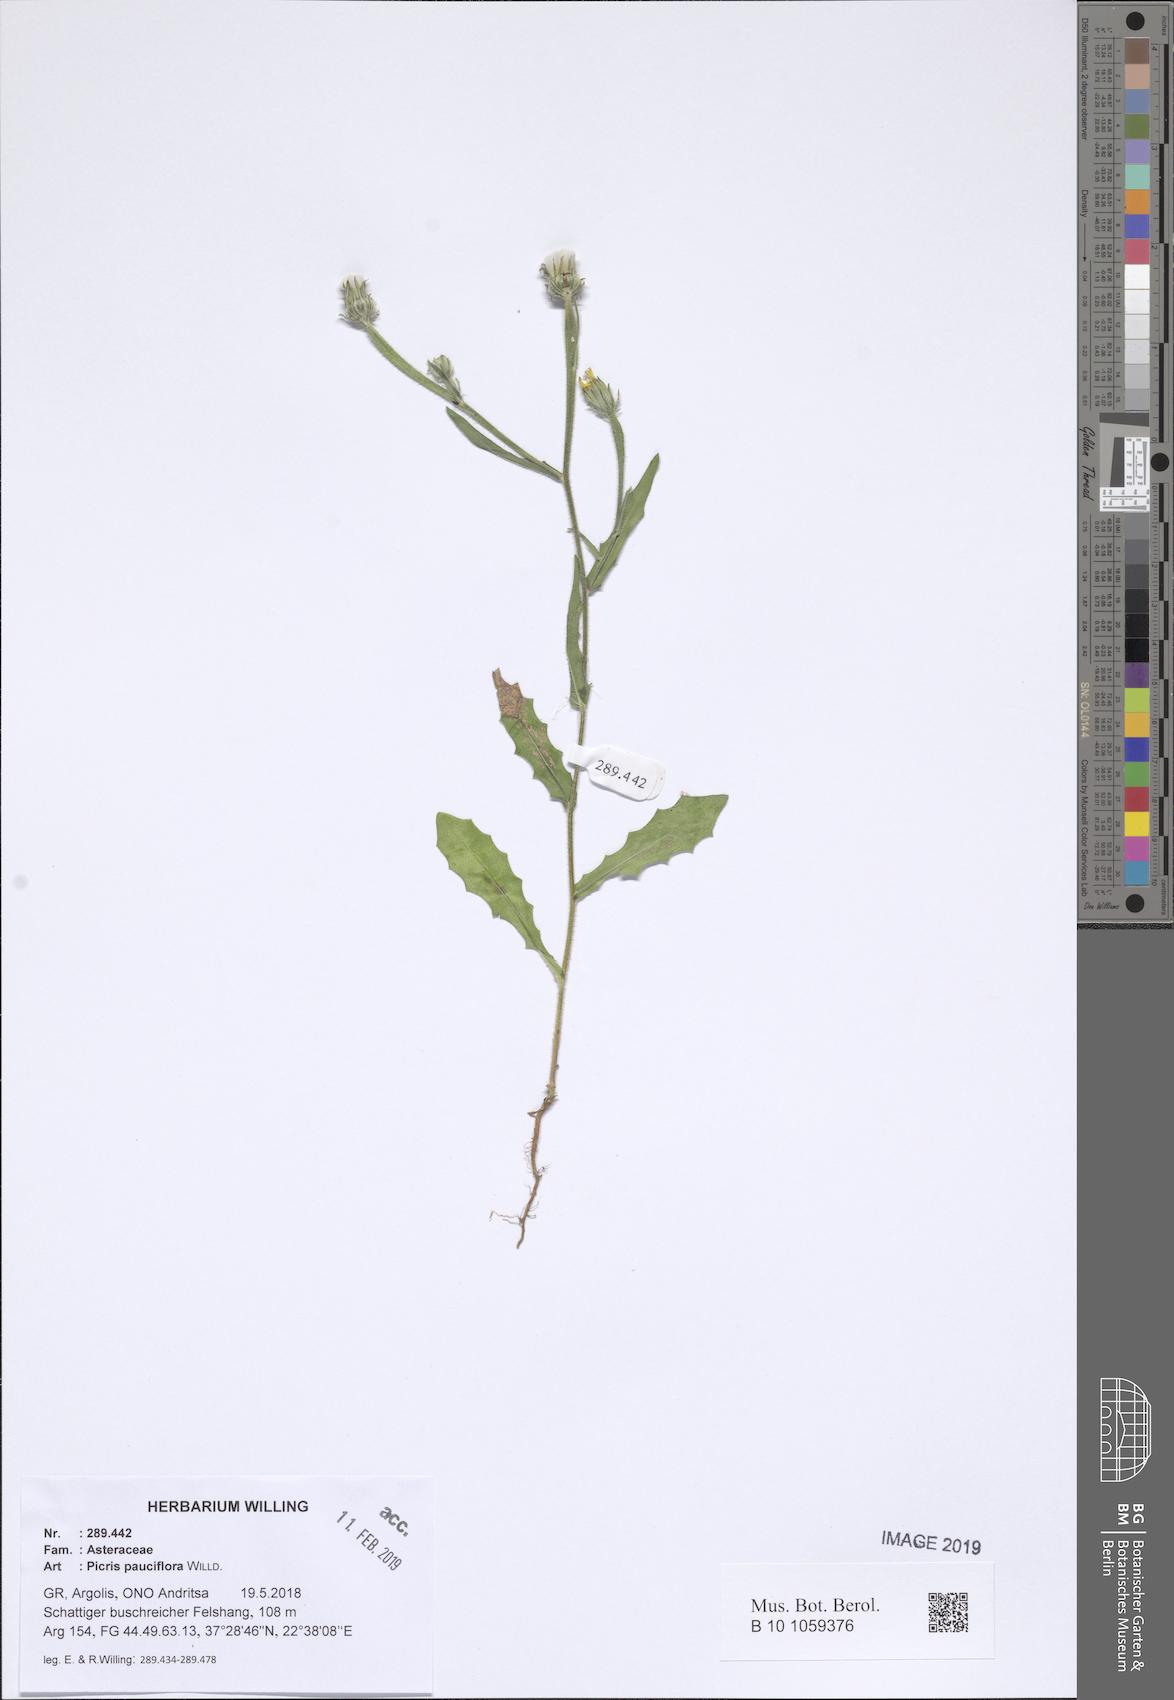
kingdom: Plantae
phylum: Tracheophyta
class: Magnoliopsida
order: Asterales
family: Asteraceae
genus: Picris
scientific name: Picris pauciflora
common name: Smallflower oxtongue
